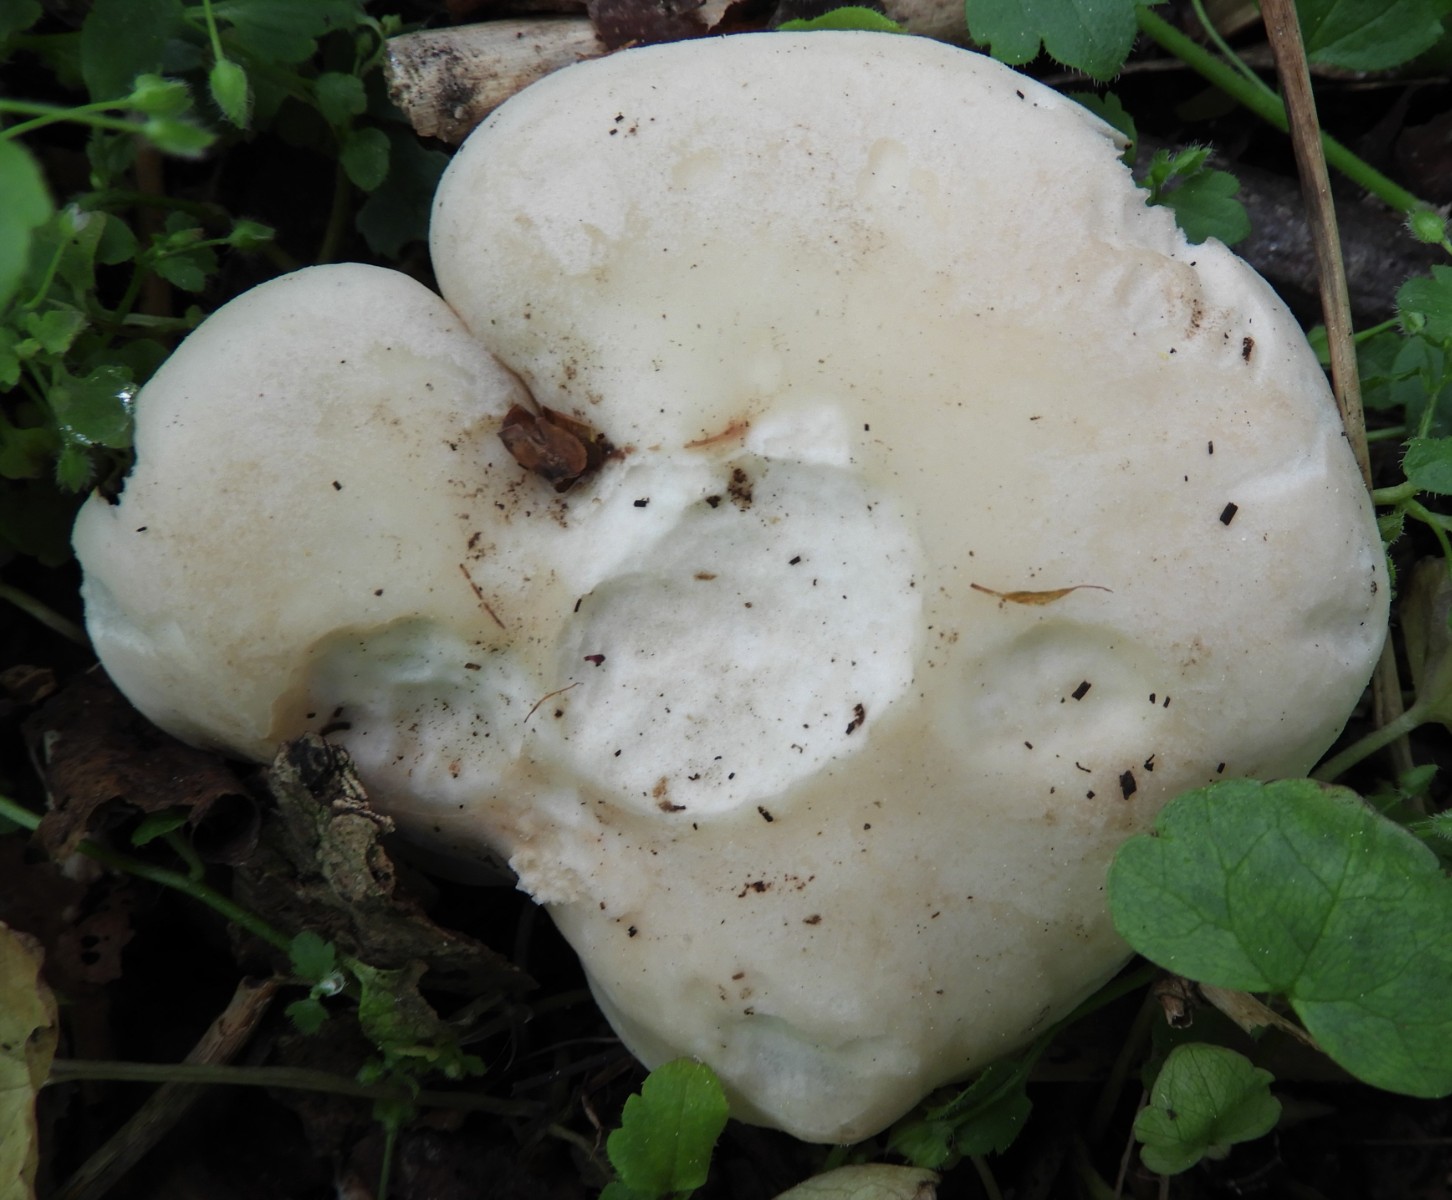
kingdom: Fungi
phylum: Basidiomycota
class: Agaricomycetes
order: Agaricales
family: Lyophyllaceae
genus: Calocybe
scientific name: Calocybe gambosa
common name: vårmusseron
